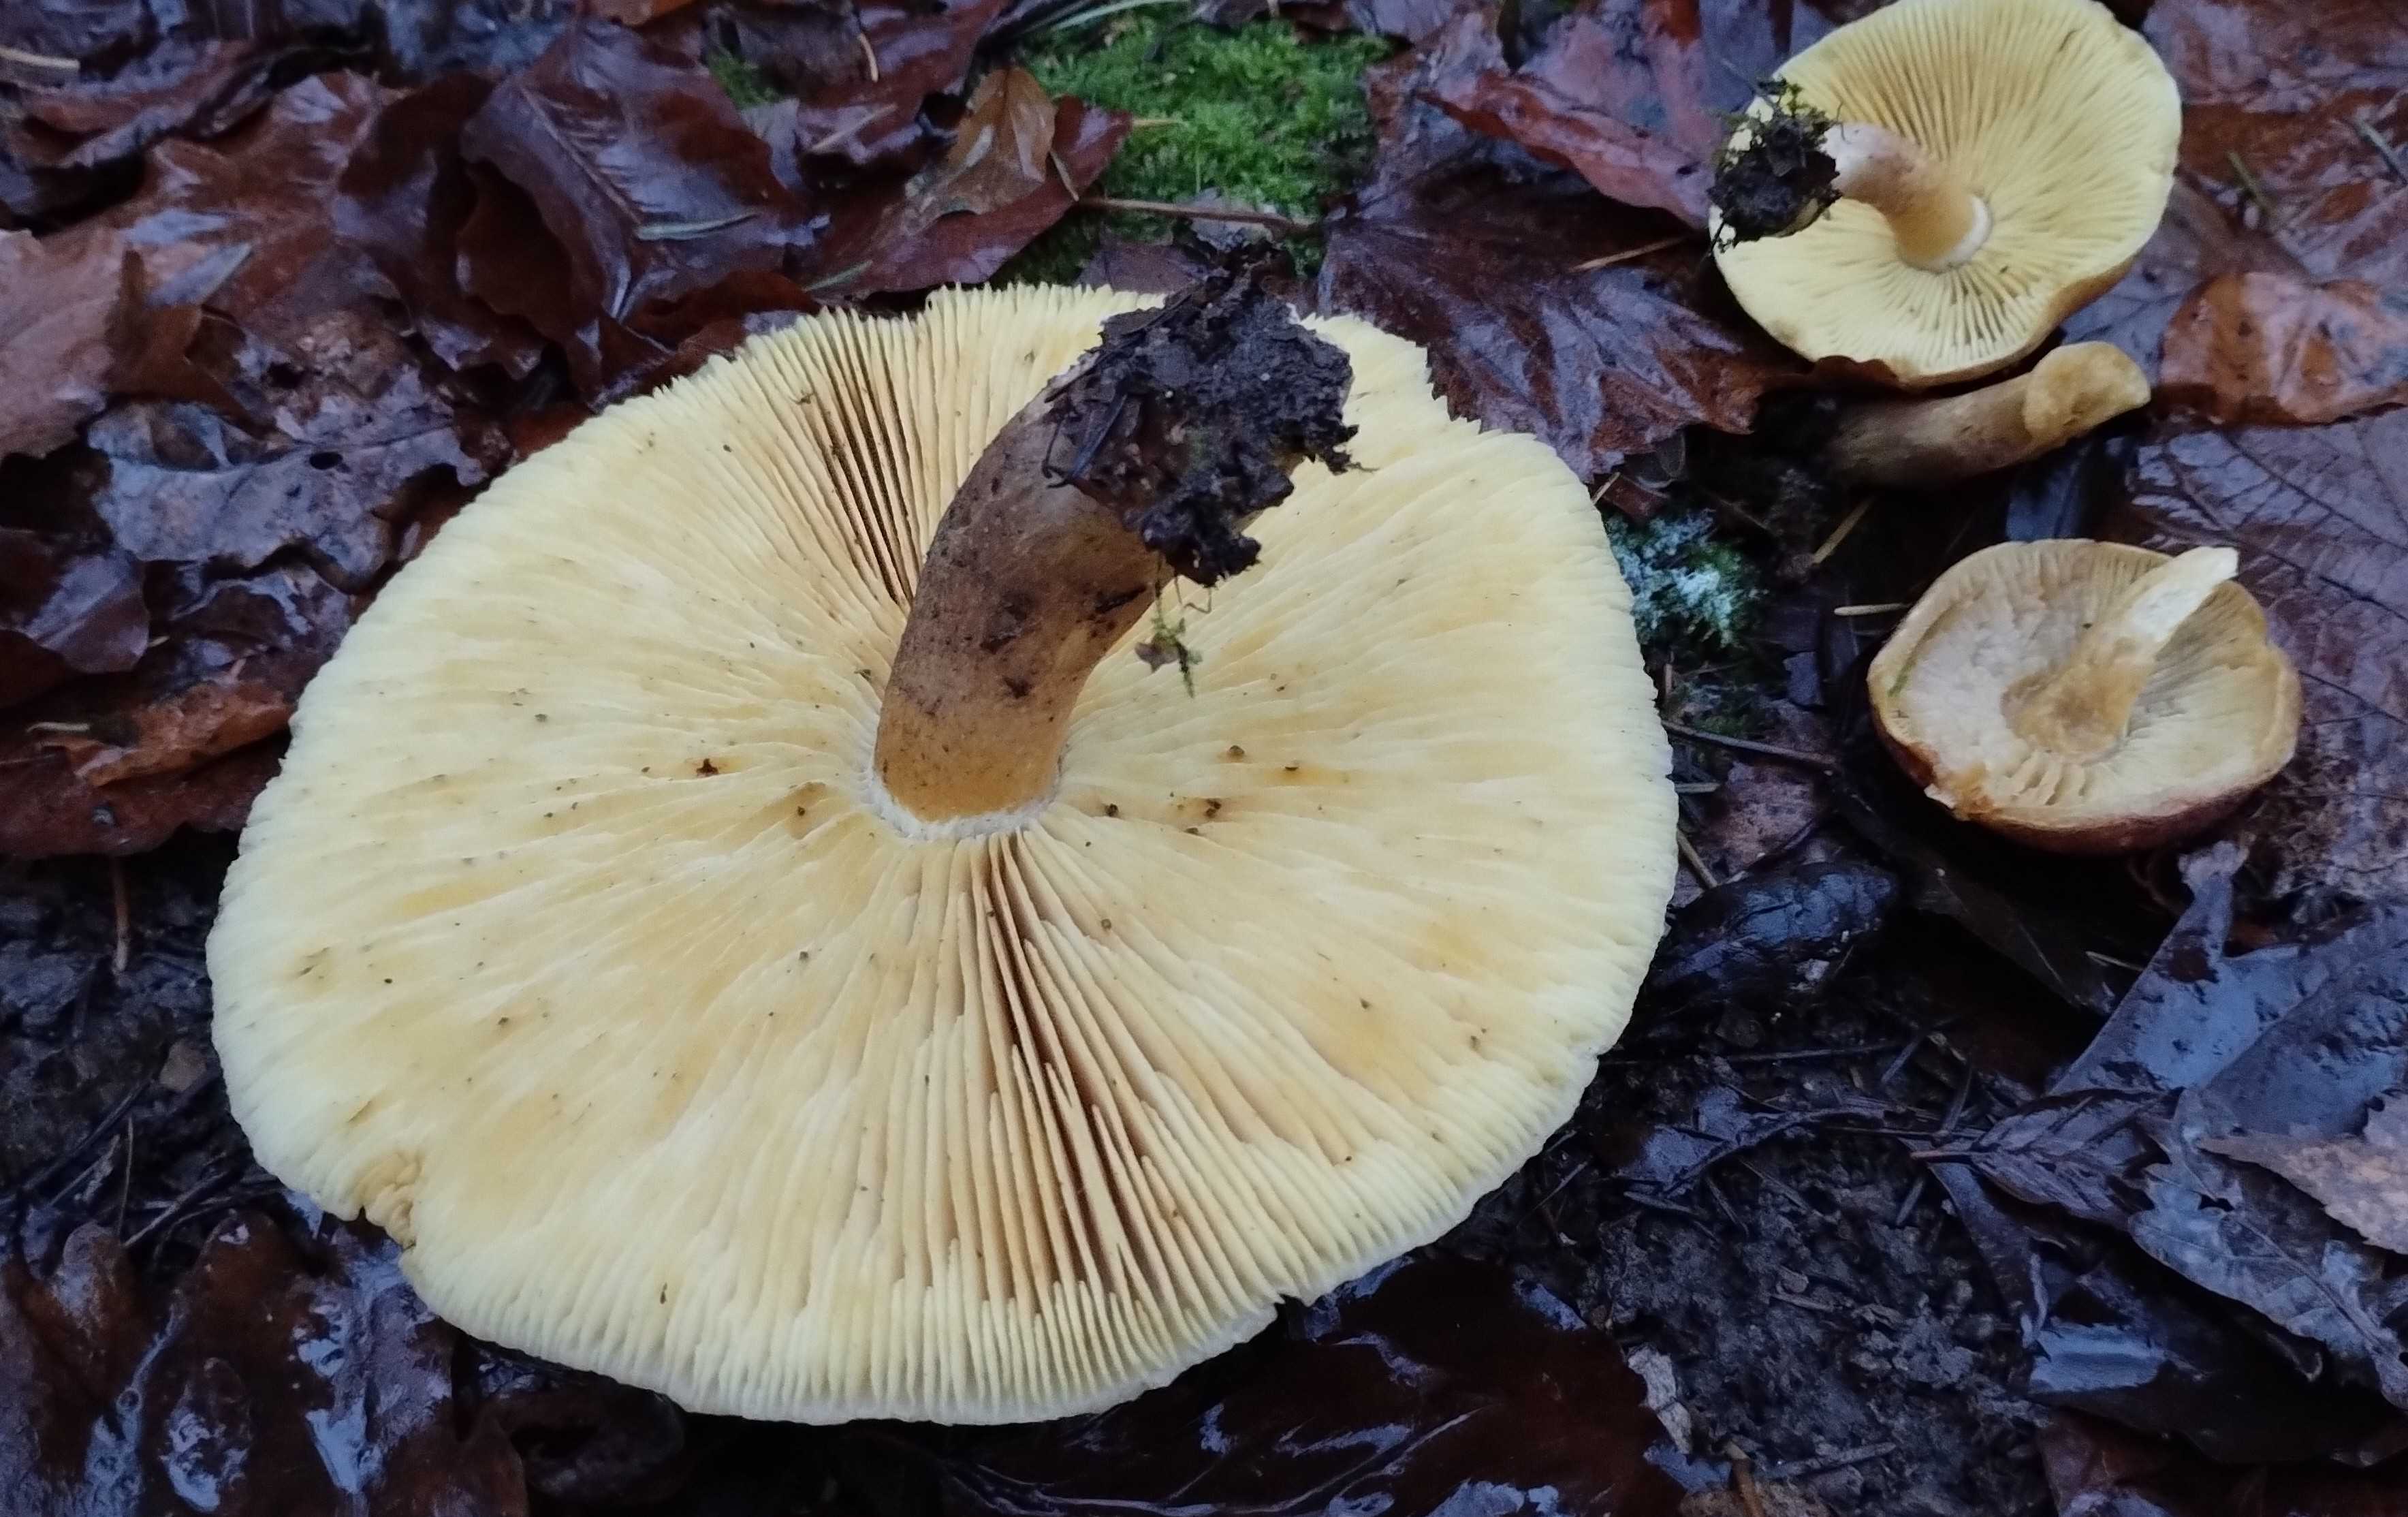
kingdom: Fungi
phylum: Basidiomycota
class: Agaricomycetes
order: Agaricales
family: Tricholomataceae
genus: Tricholomopsis
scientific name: Tricholomopsis rutilans
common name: purpur-væbnerhat
